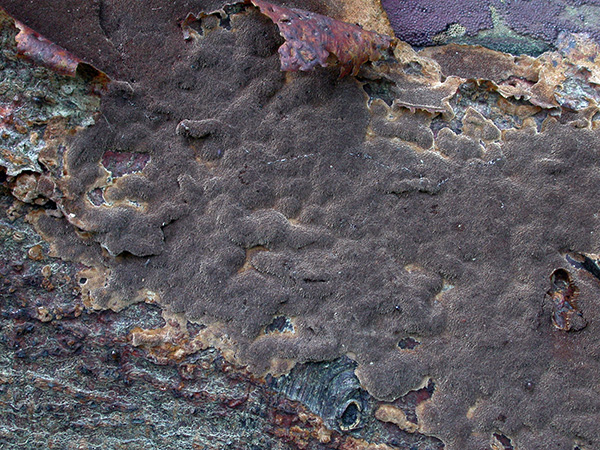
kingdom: Fungi
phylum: Basidiomycota
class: Agaricomycetes
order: Hymenochaetales
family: Hymenochaetaceae
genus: Fuscoporia
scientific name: Fuscoporia ferruginosa
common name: rustbrun ildporesvamp
